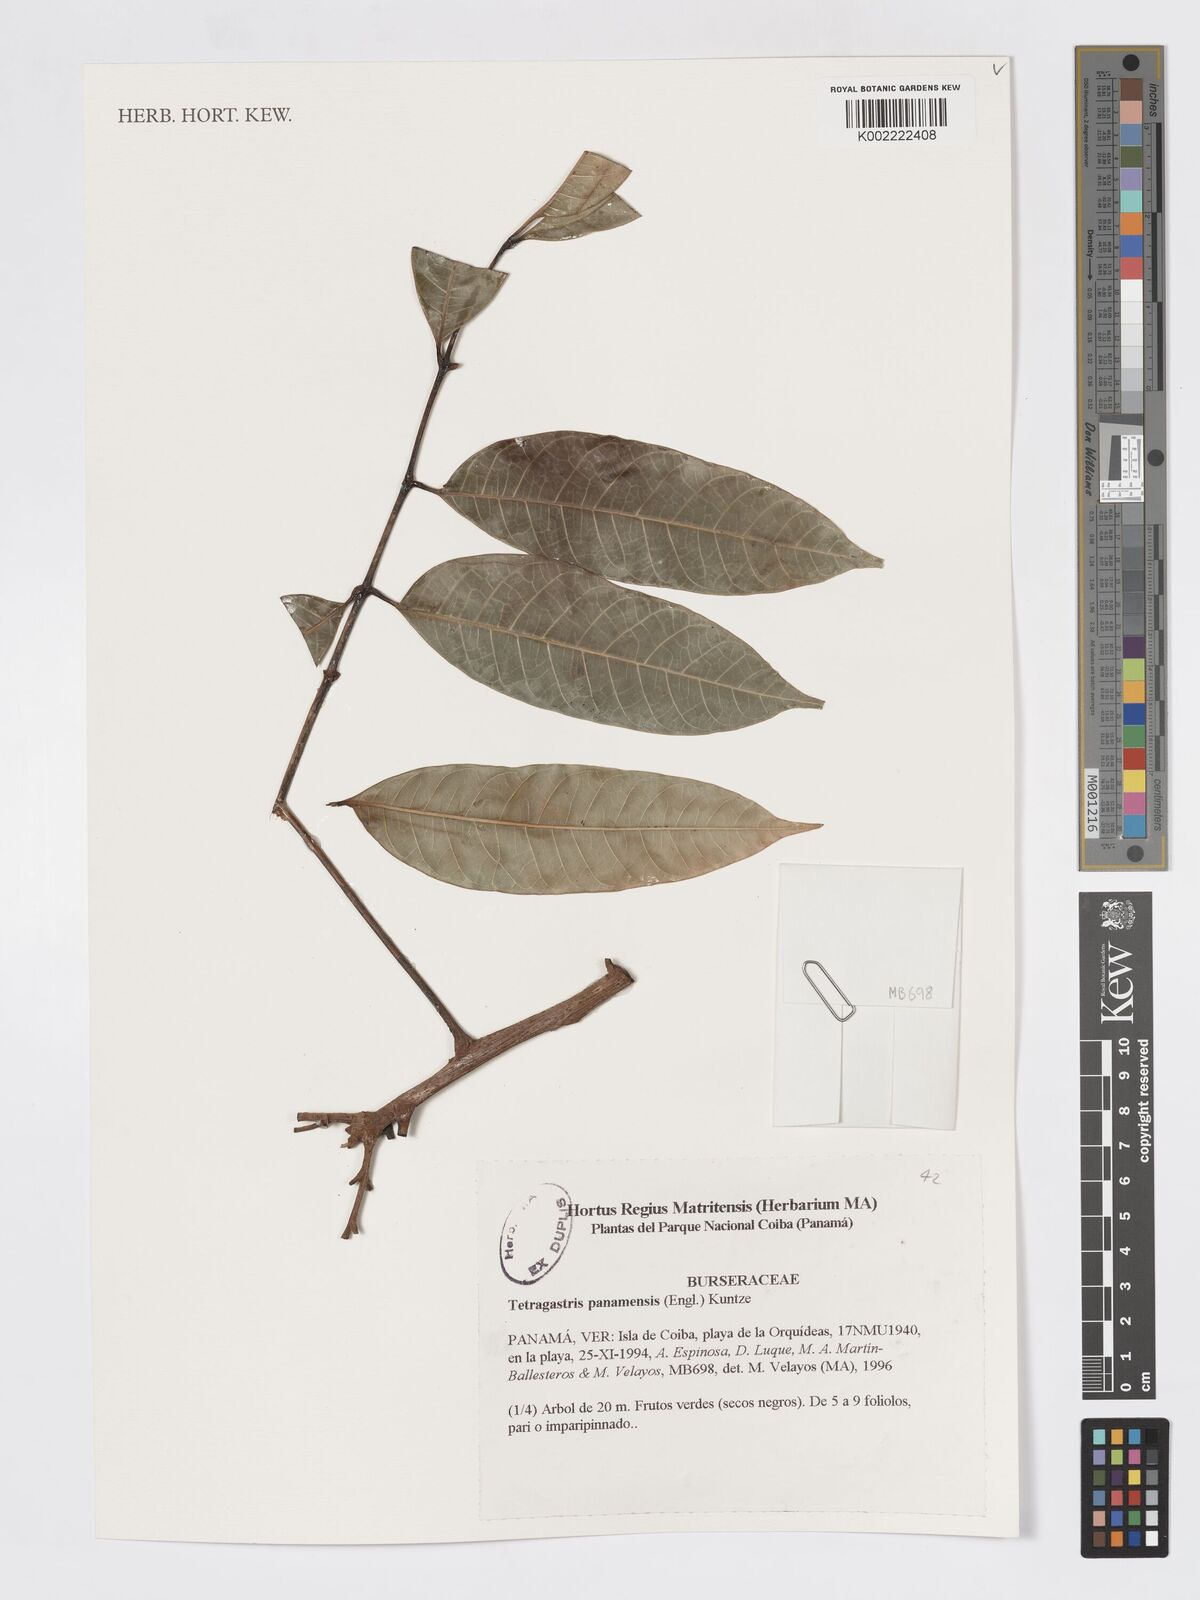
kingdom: Plantae
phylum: Tracheophyta
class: Magnoliopsida
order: Sapindales
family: Burseraceae
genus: Tetragastris
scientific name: Tetragastris panamensis
